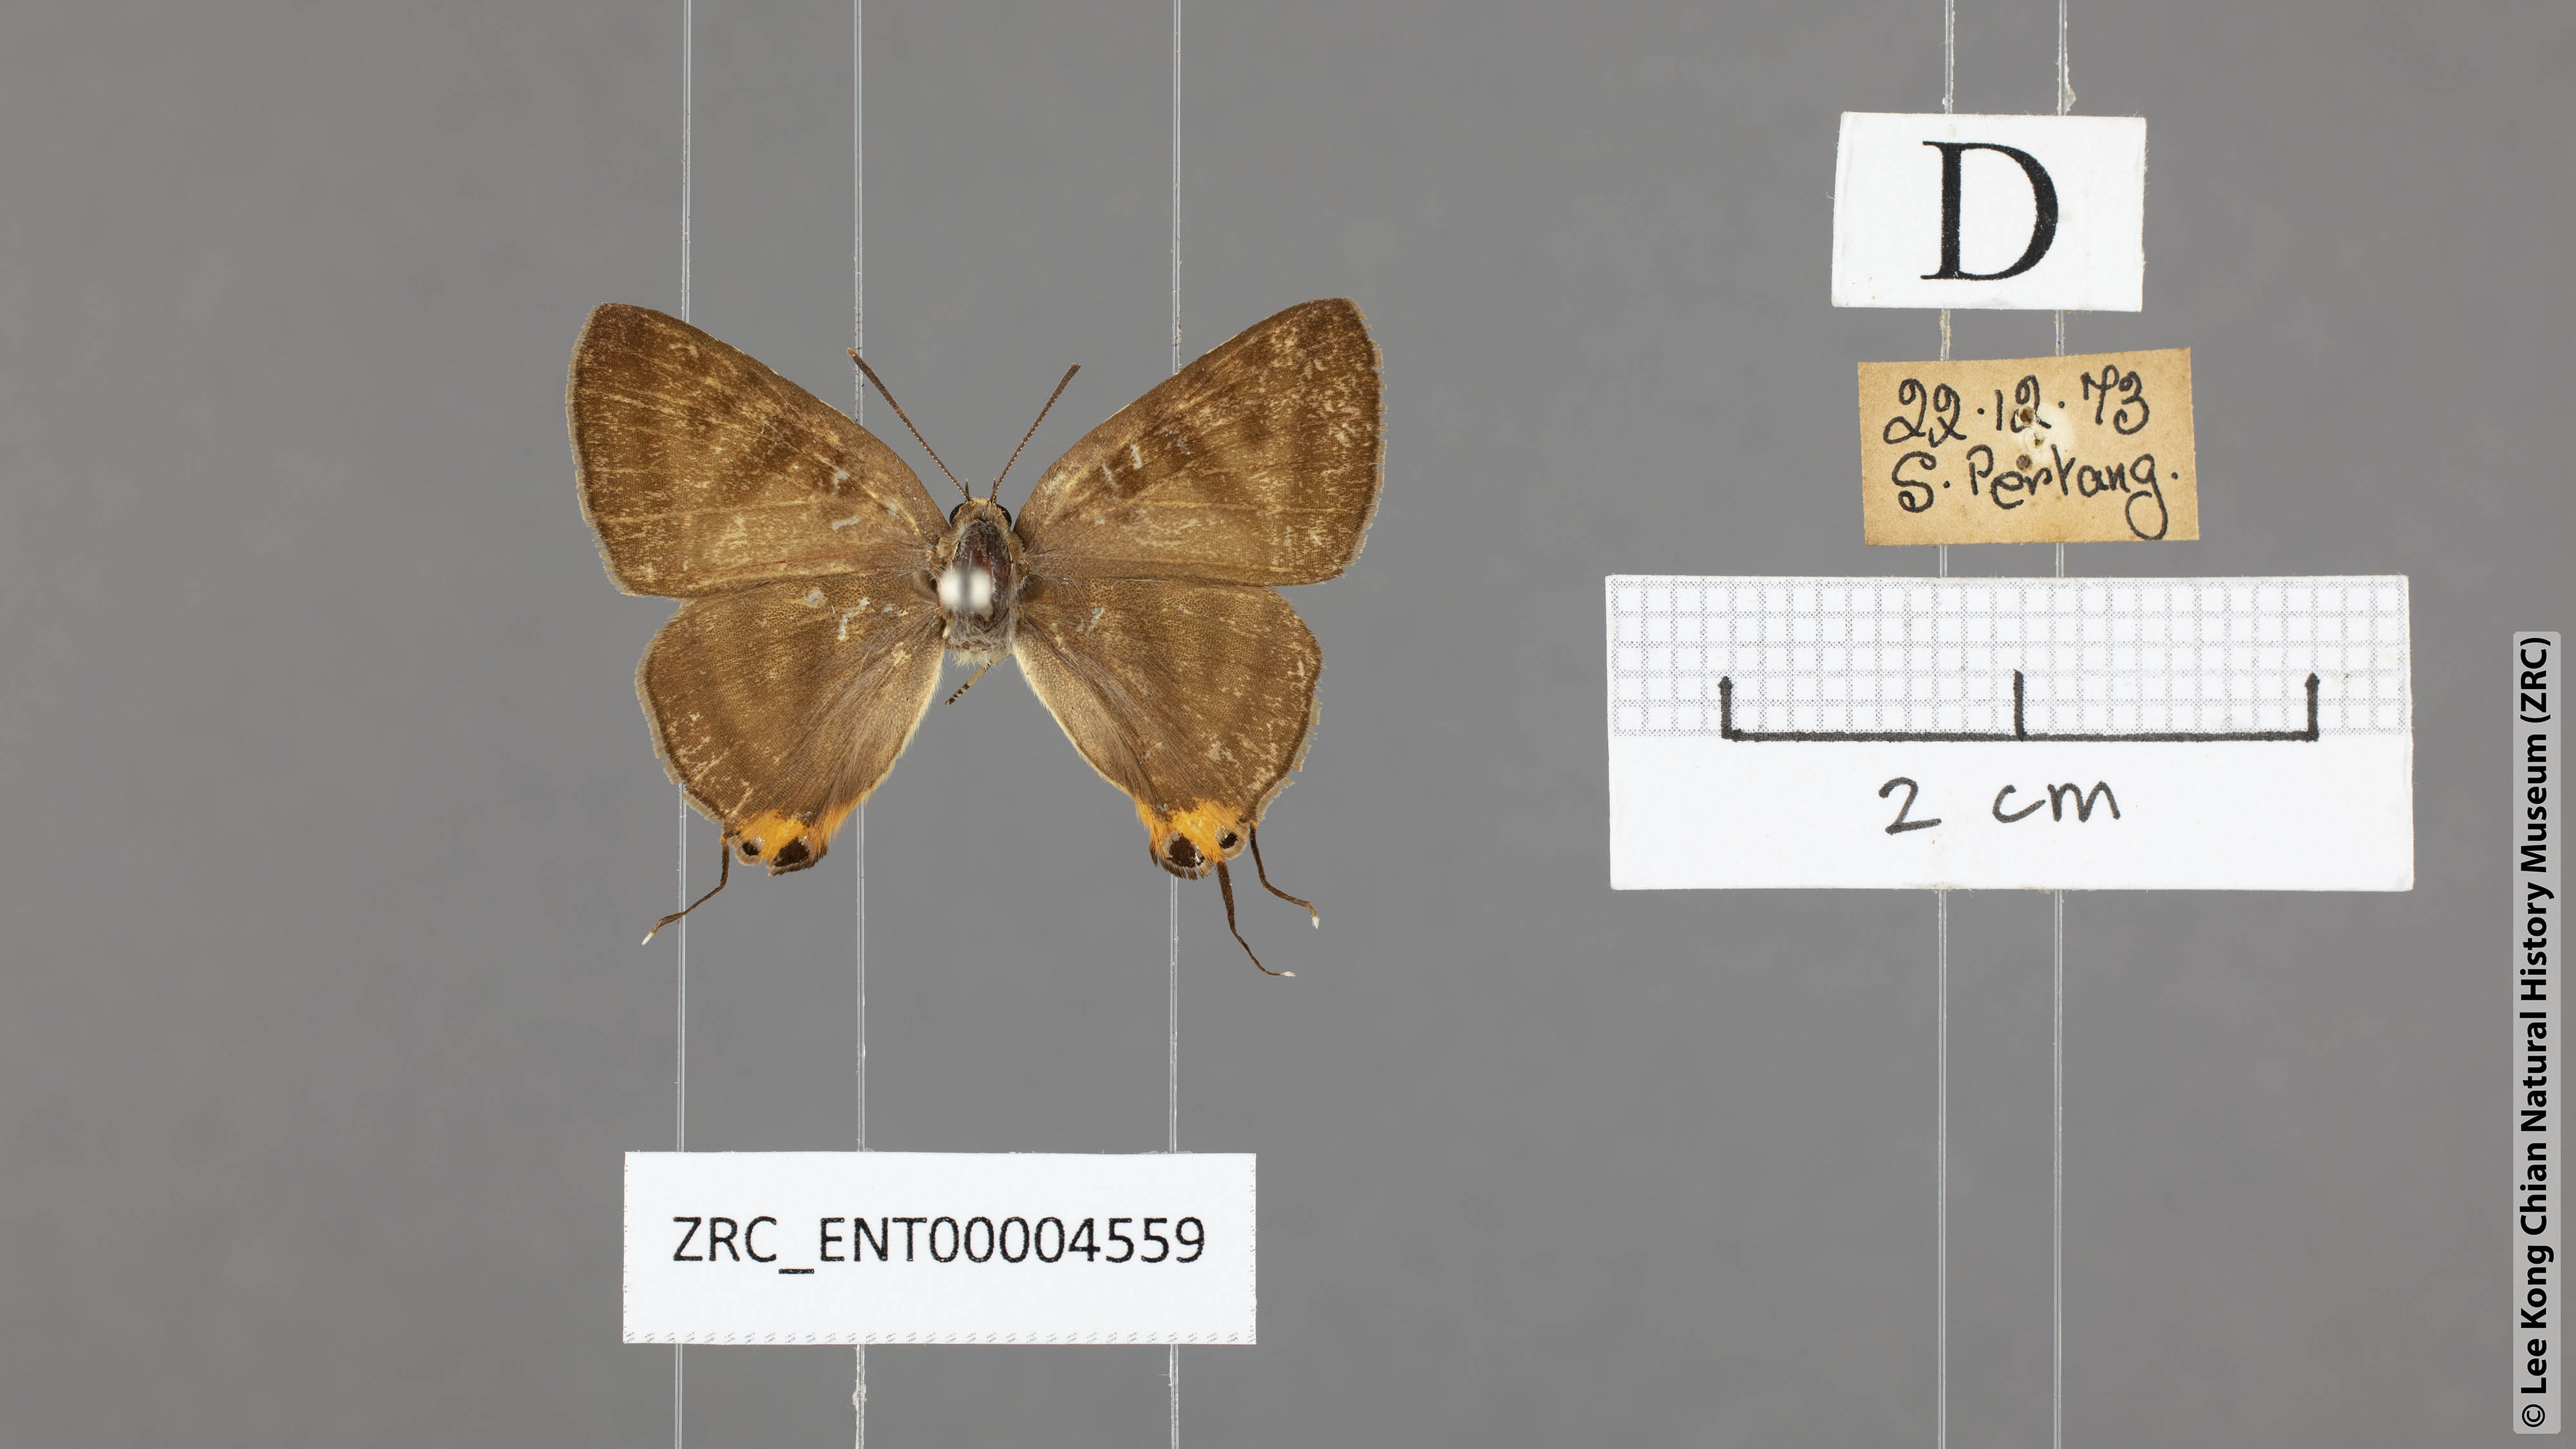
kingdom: Animalia
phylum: Arthropoda
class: Insecta
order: Lepidoptera
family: Lycaenidae
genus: Spindasis
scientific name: Spindasis lohita
